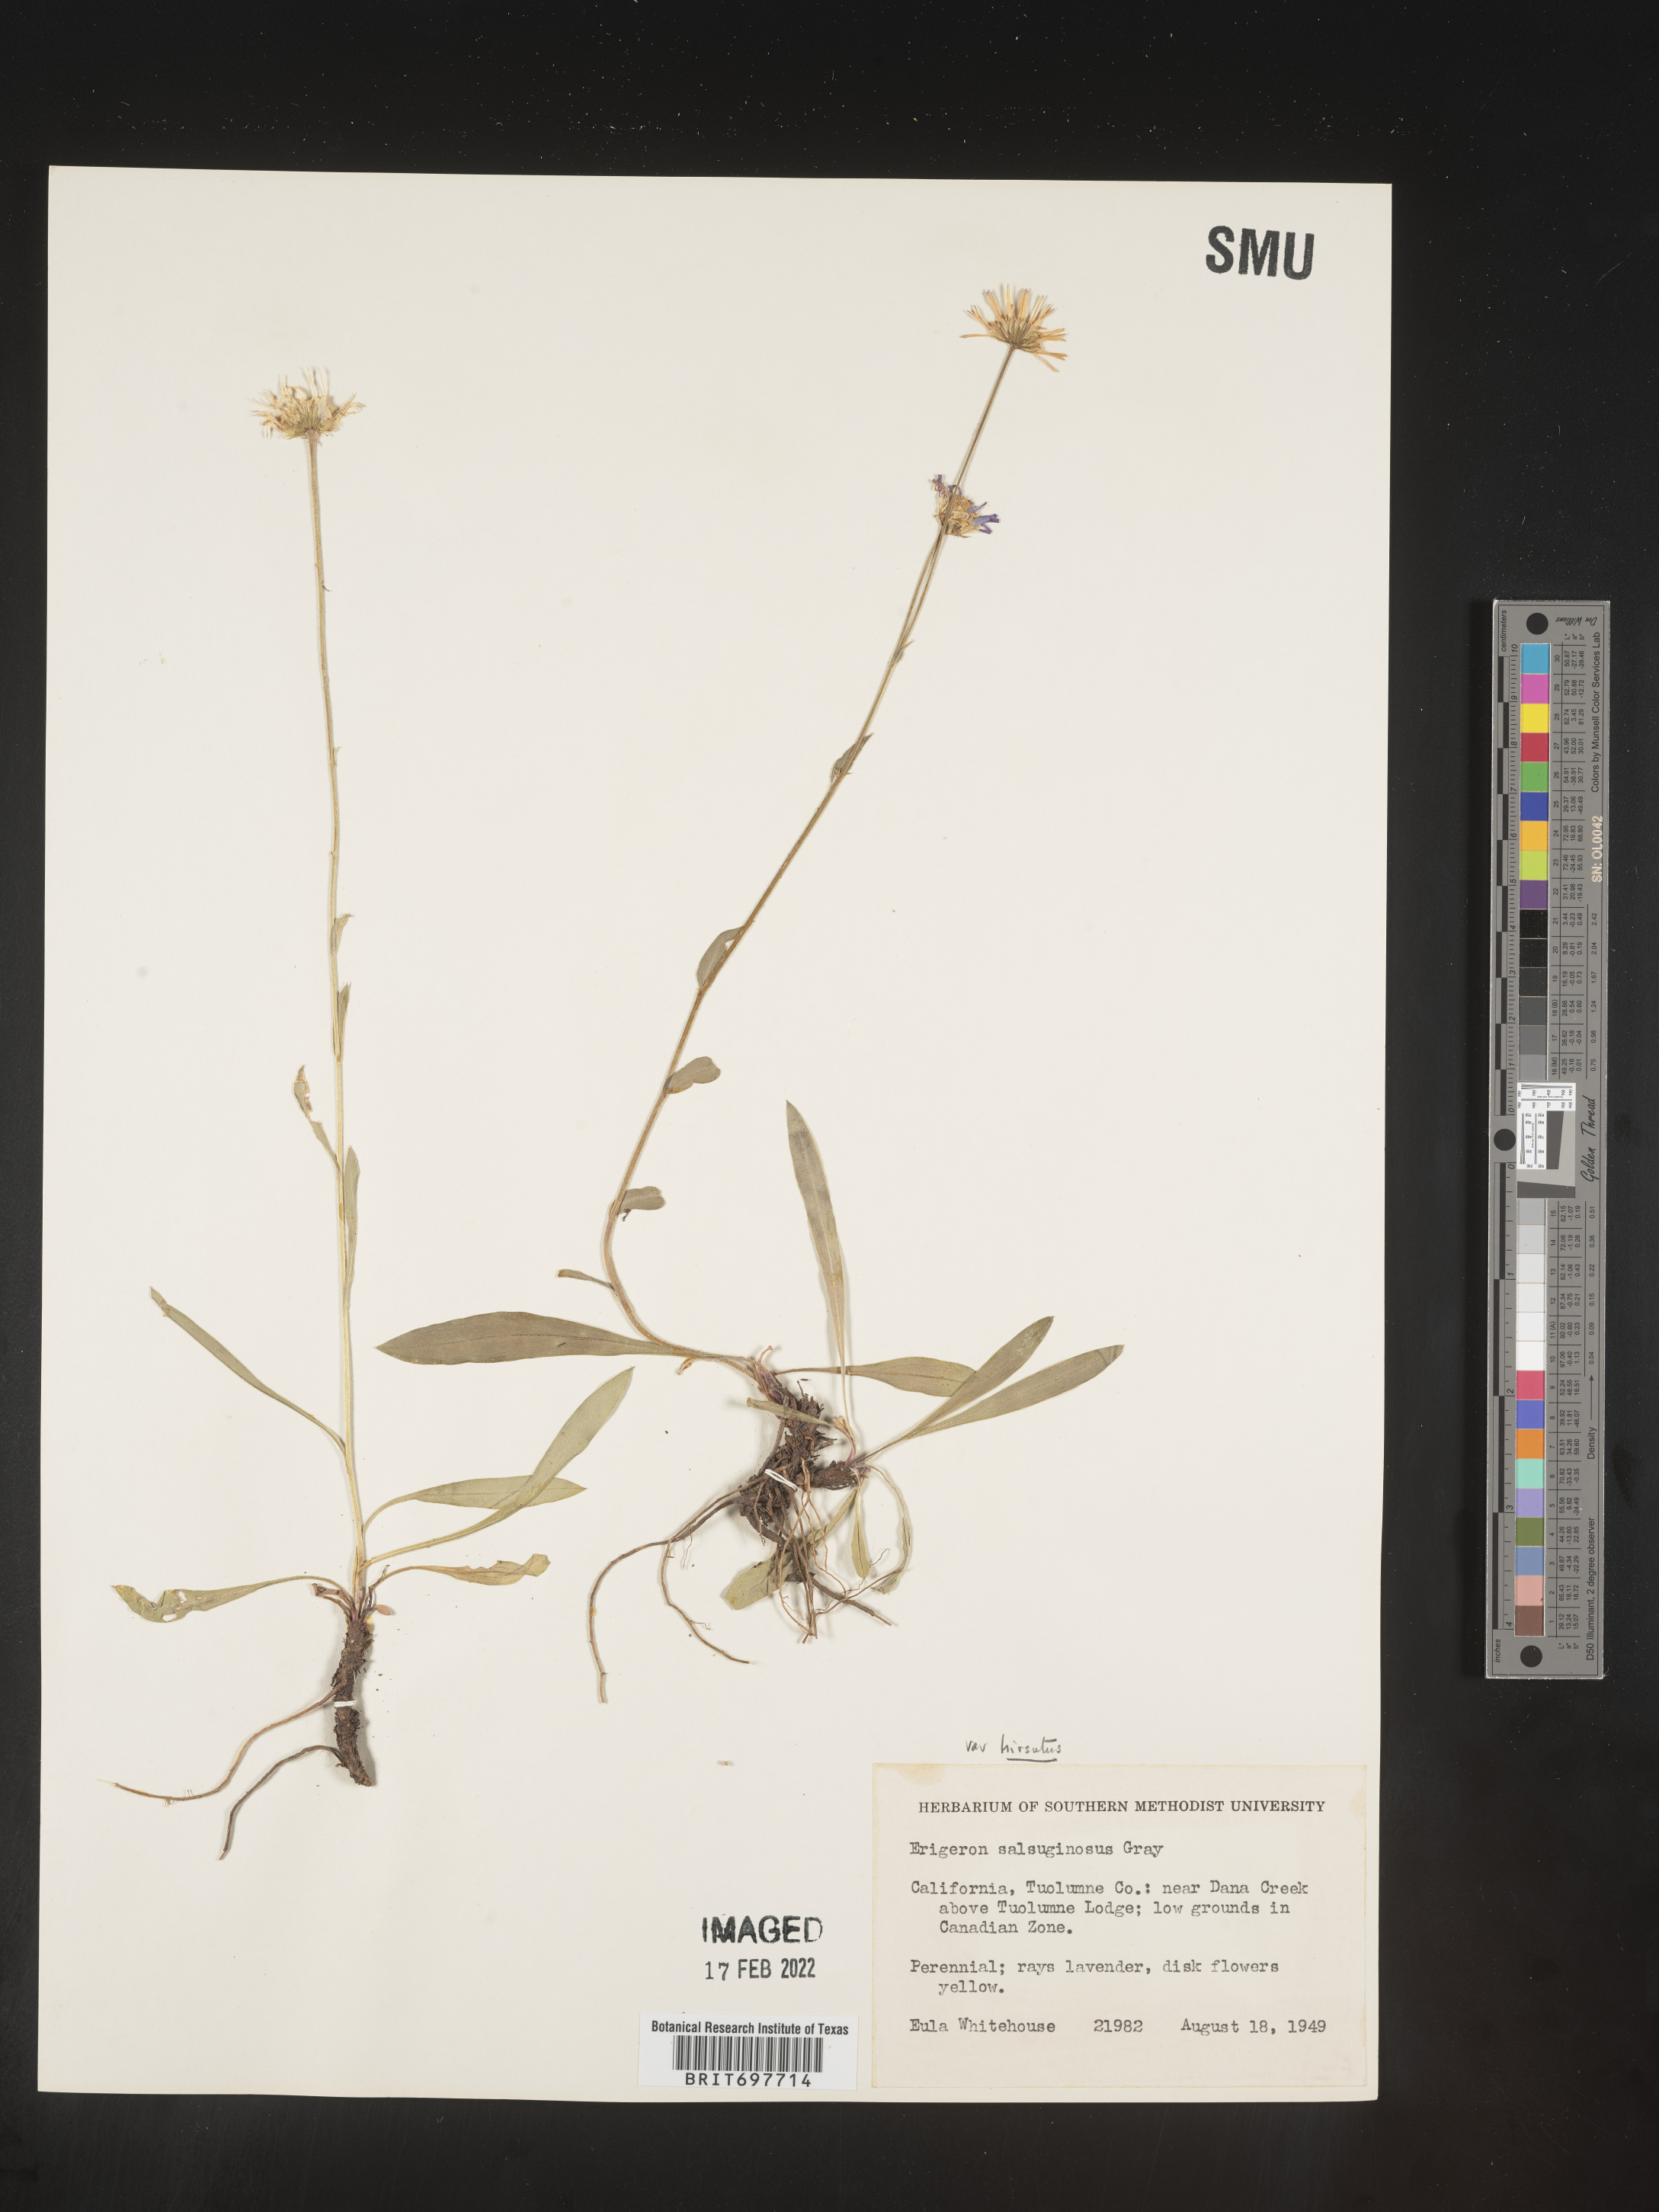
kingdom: Plantae
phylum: Tracheophyta
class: Magnoliopsida
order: Asterales
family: Asteraceae
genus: Erigeron
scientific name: Erigeron glacialis
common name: Subalpine fleabane
